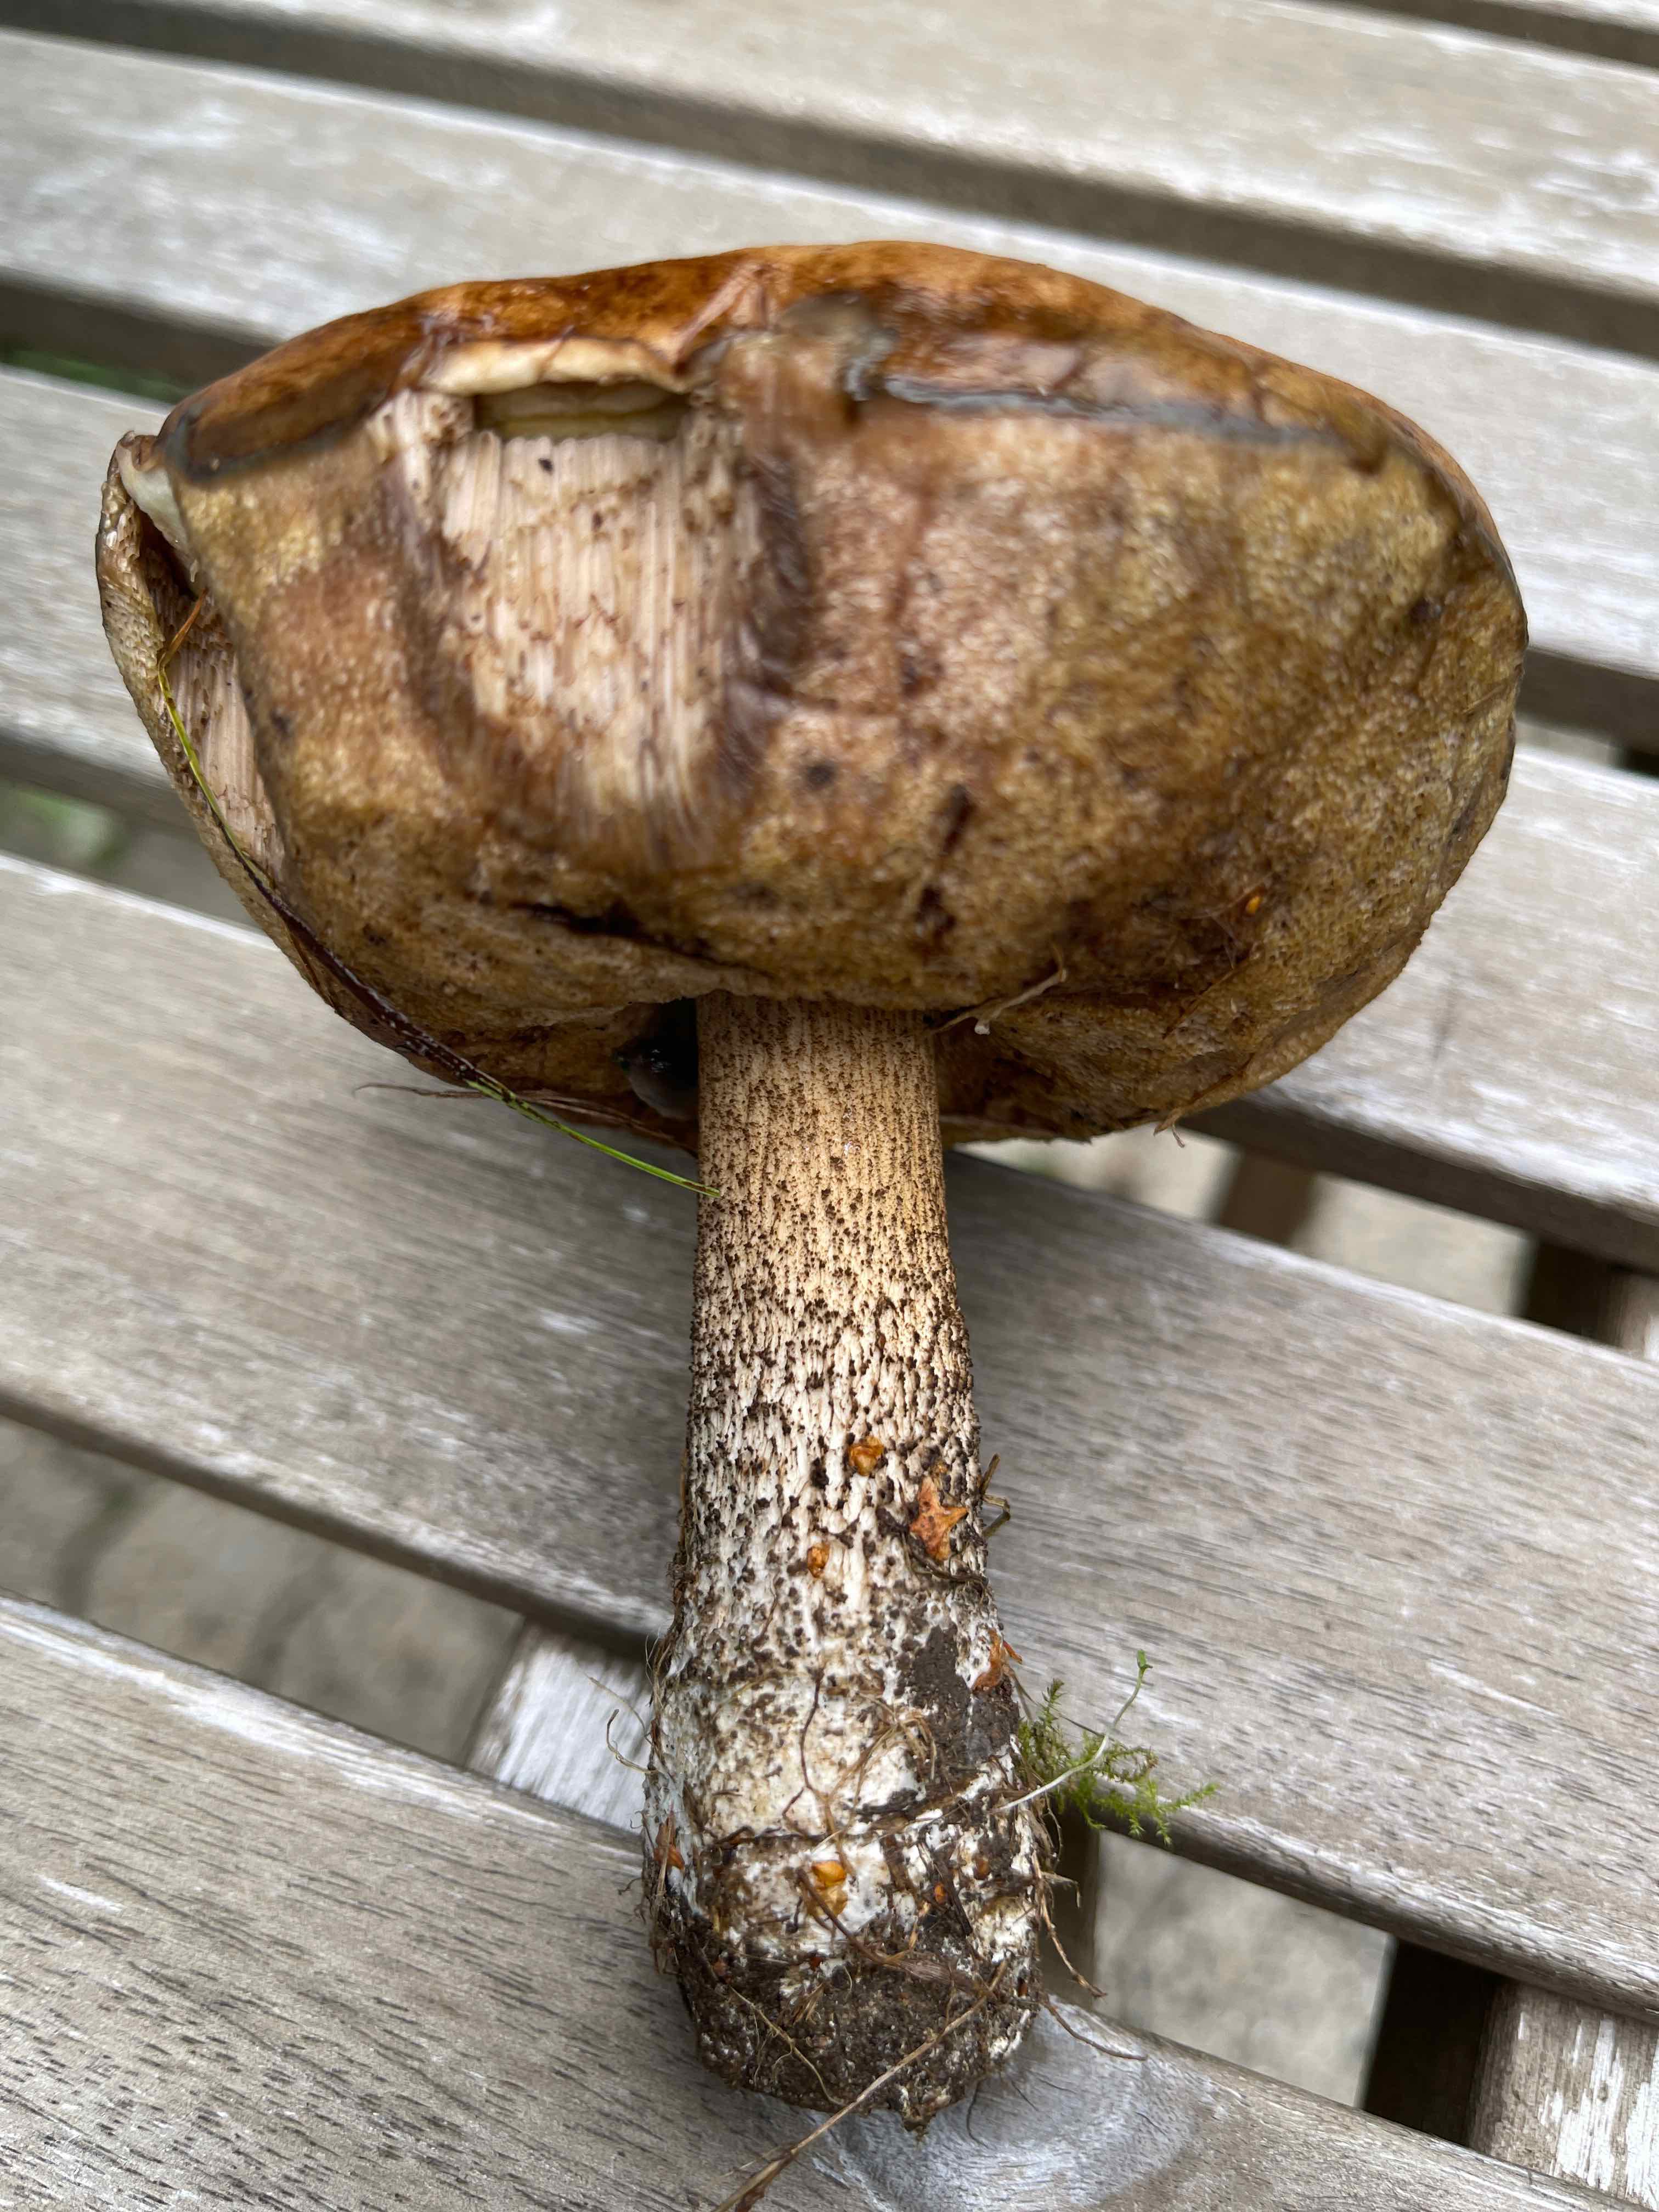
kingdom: Fungi
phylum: Basidiomycota
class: Agaricomycetes
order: Boletales
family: Boletaceae
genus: Leccinum
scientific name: Leccinum scabrum
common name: brun skælrørhat
